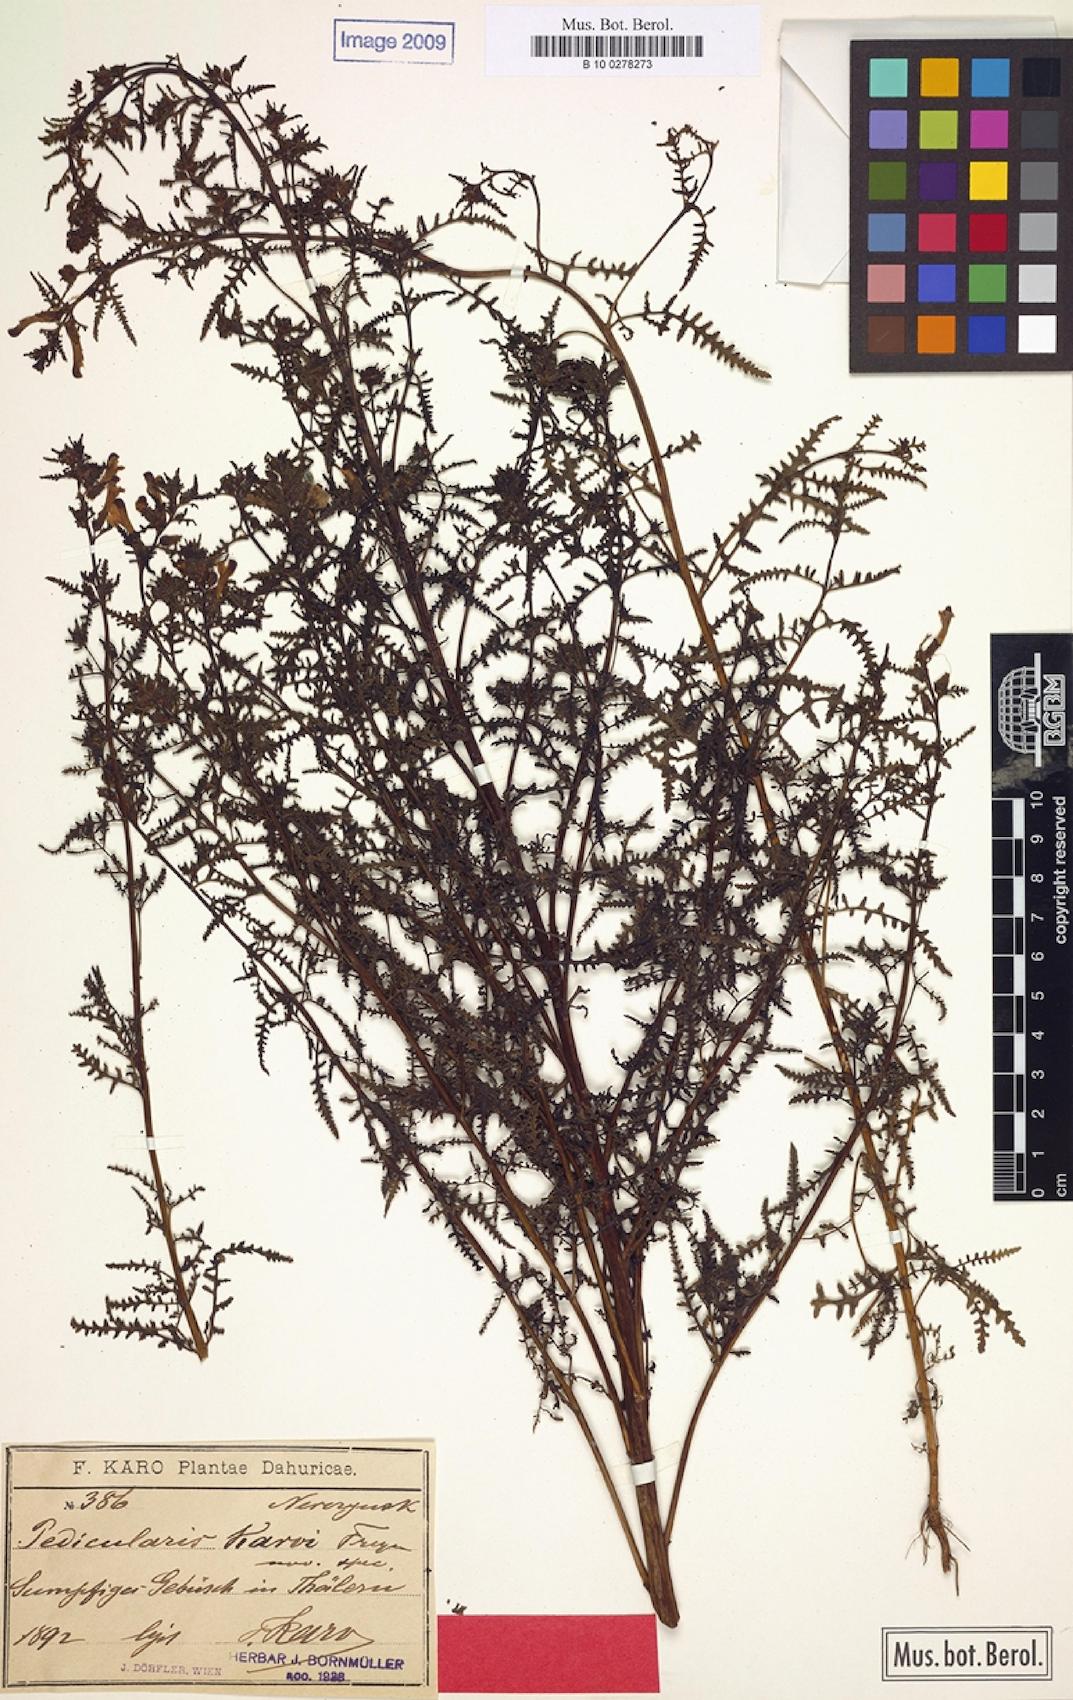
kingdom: Plantae
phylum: Tracheophyta
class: Magnoliopsida
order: Lamiales
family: Orobanchaceae
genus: Pedicularis
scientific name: Pedicularis karoi
